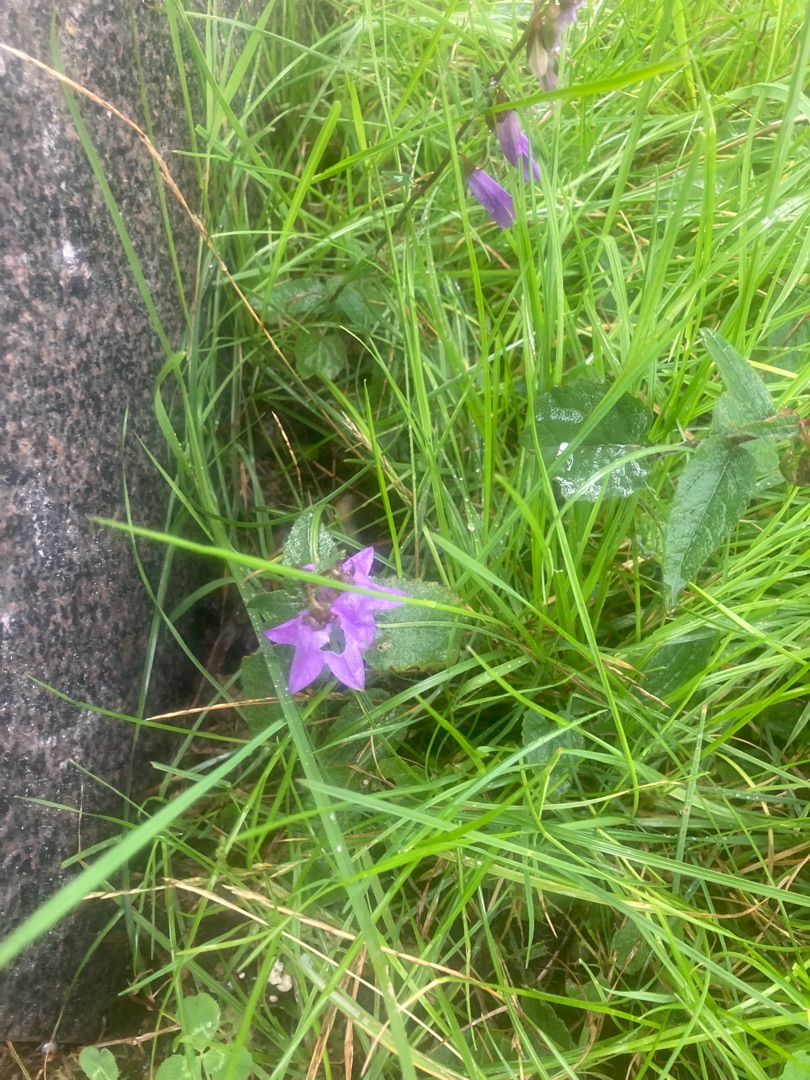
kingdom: Plantae
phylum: Tracheophyta
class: Magnoliopsida
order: Asterales
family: Campanulaceae
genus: Campanula
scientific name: Campanula rapunculoides
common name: Ensidig klokke
